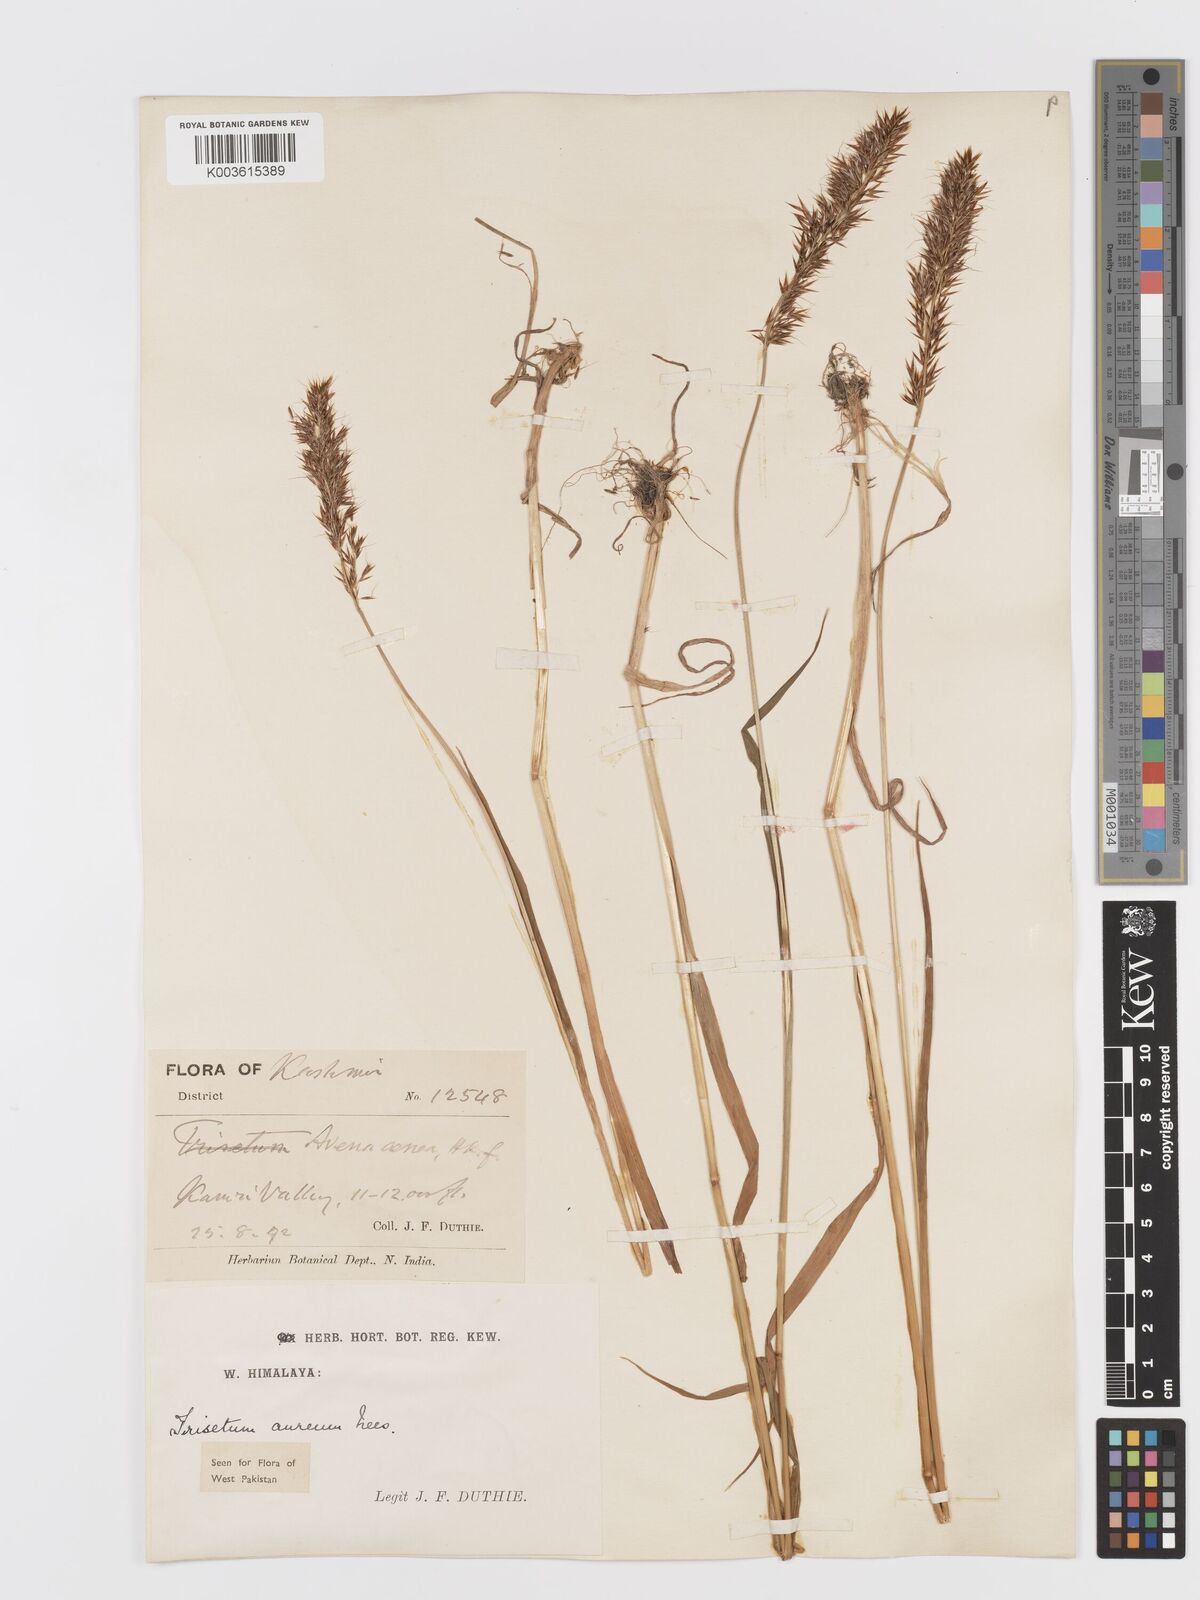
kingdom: Plantae
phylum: Tracheophyta
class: Liliopsida
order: Poales
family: Poaceae
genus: Sibirotrisetum
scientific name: Sibirotrisetum aeneum
